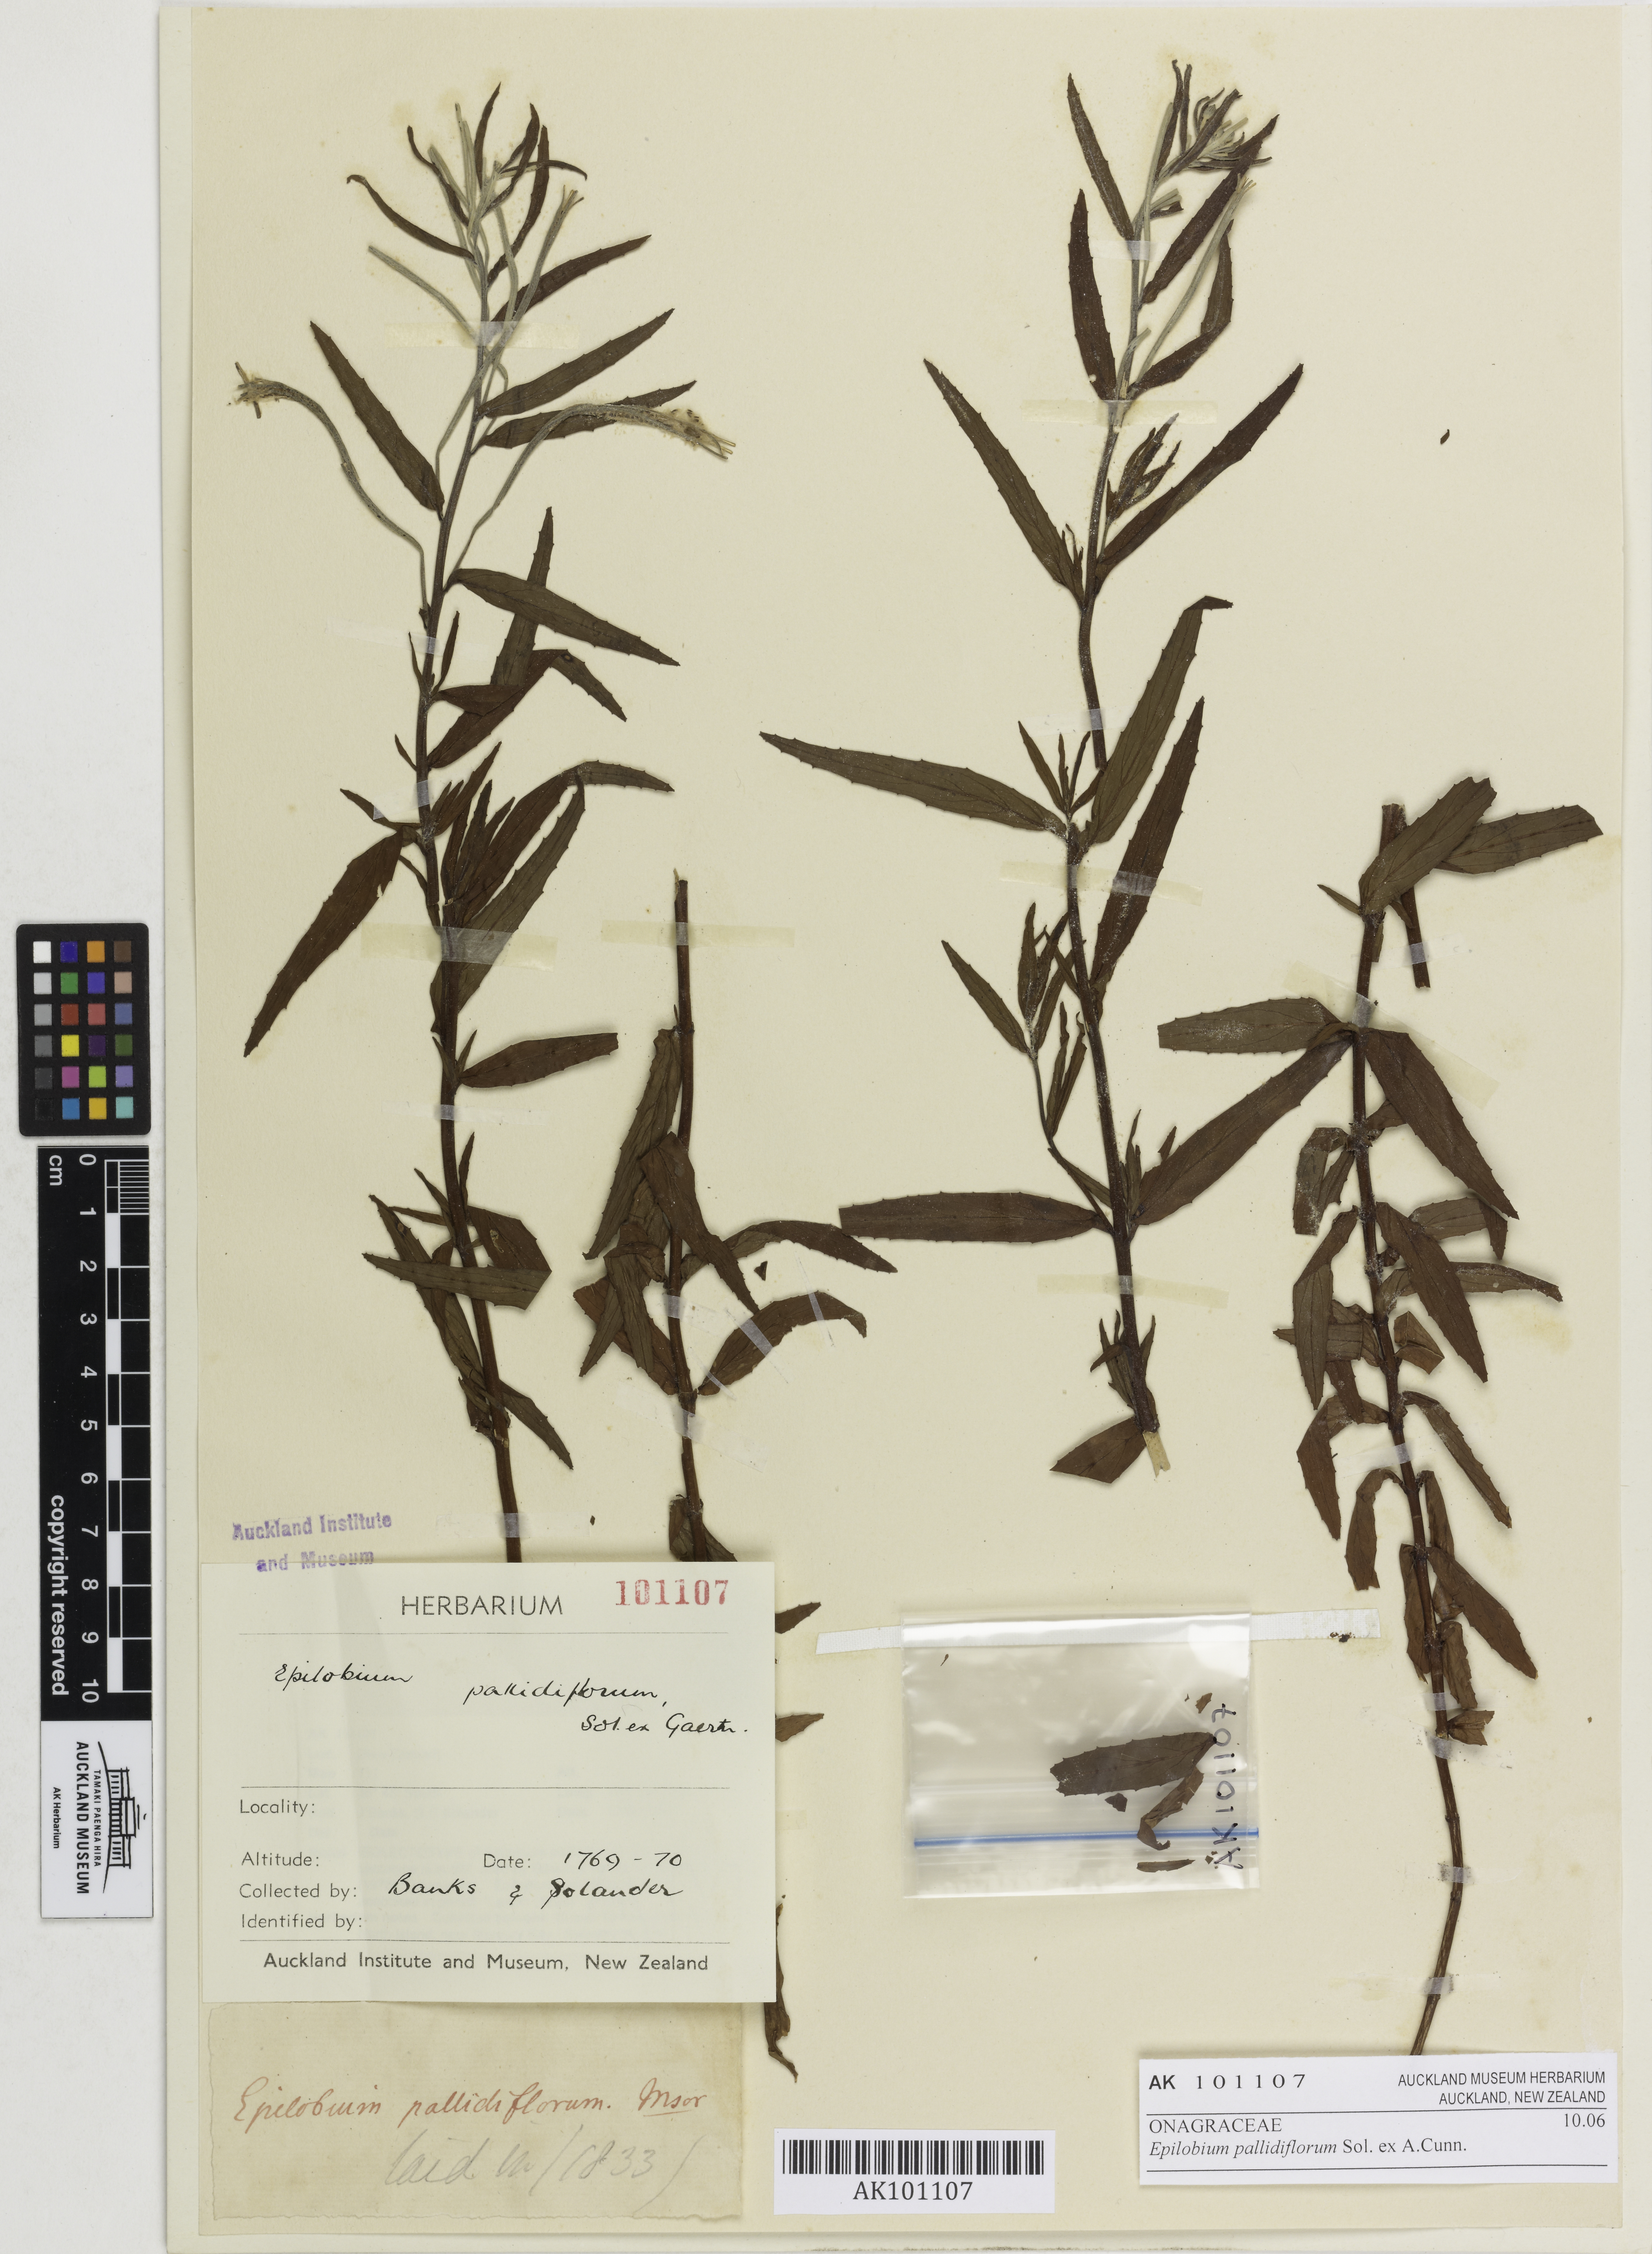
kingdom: Plantae
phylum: Tracheophyta
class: Magnoliopsida
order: Myrtales
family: Onagraceae
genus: Epilobium
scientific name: Epilobium pallidiflorum
